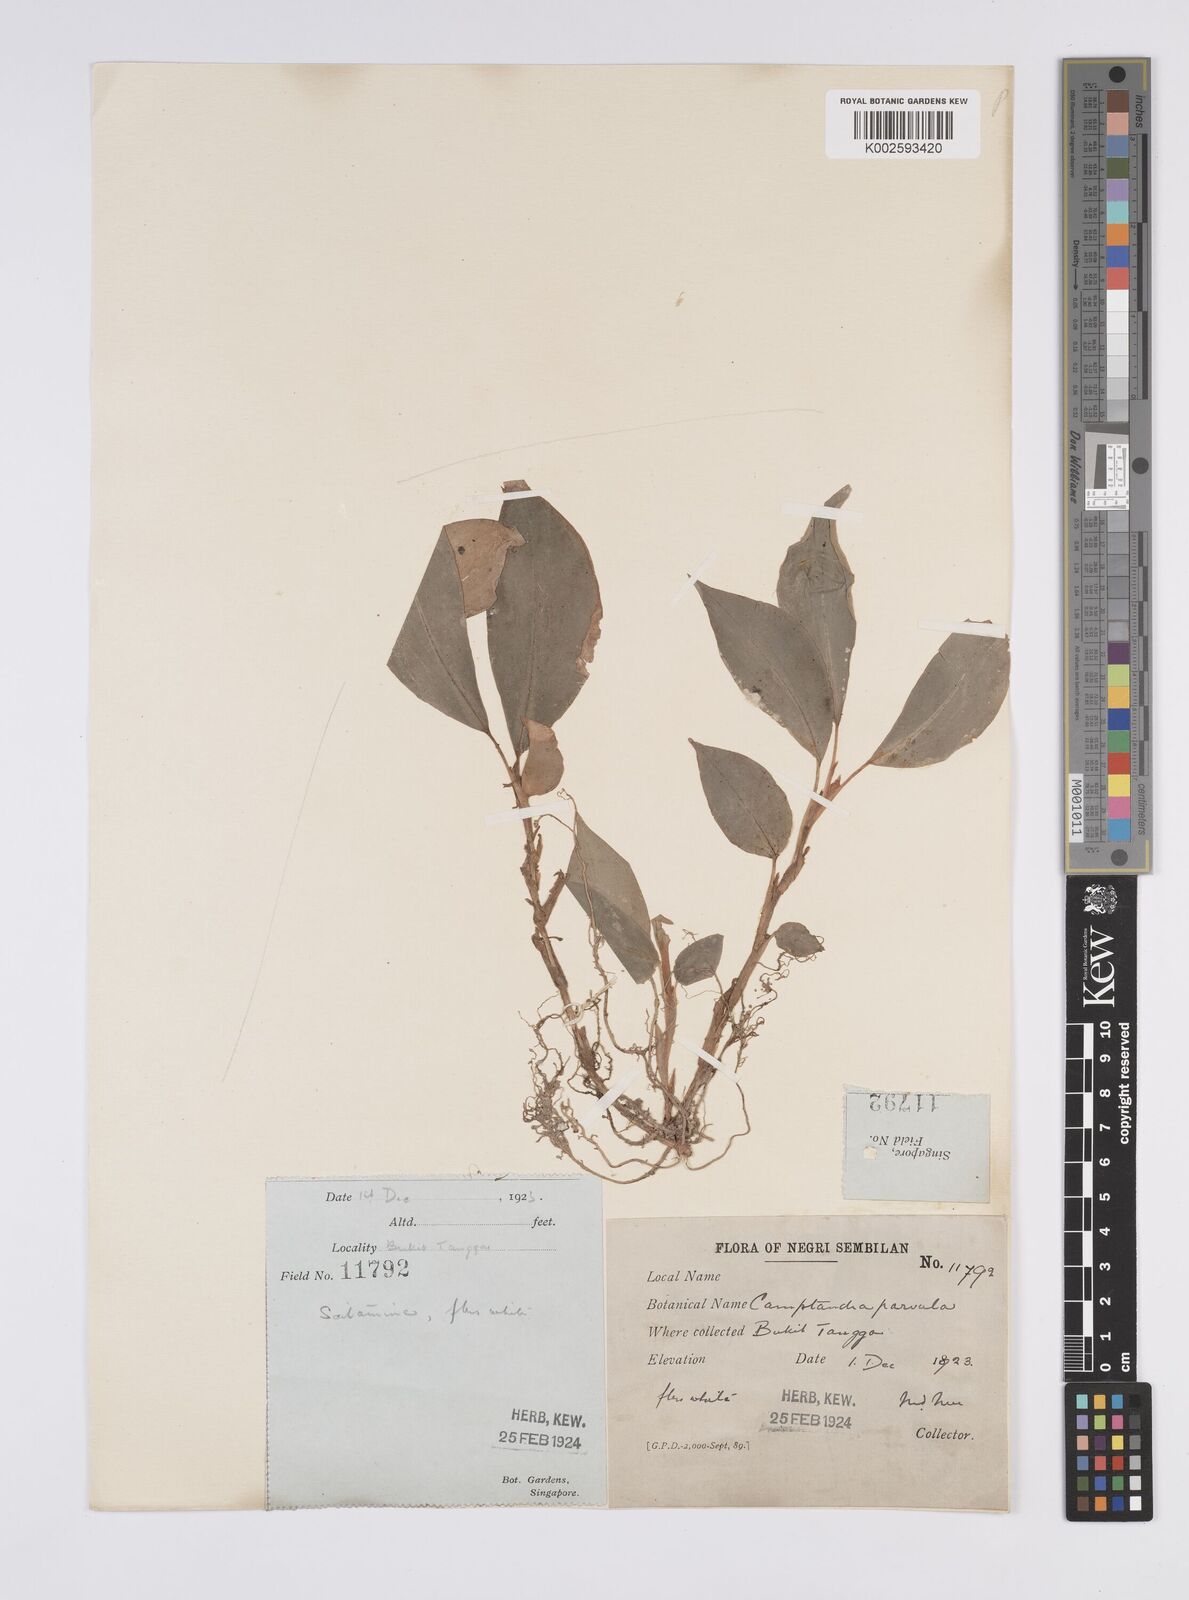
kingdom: Plantae
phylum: Tracheophyta
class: Liliopsida
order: Zingiberales
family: Zingiberaceae
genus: Camptandra
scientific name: Camptandra parvula
